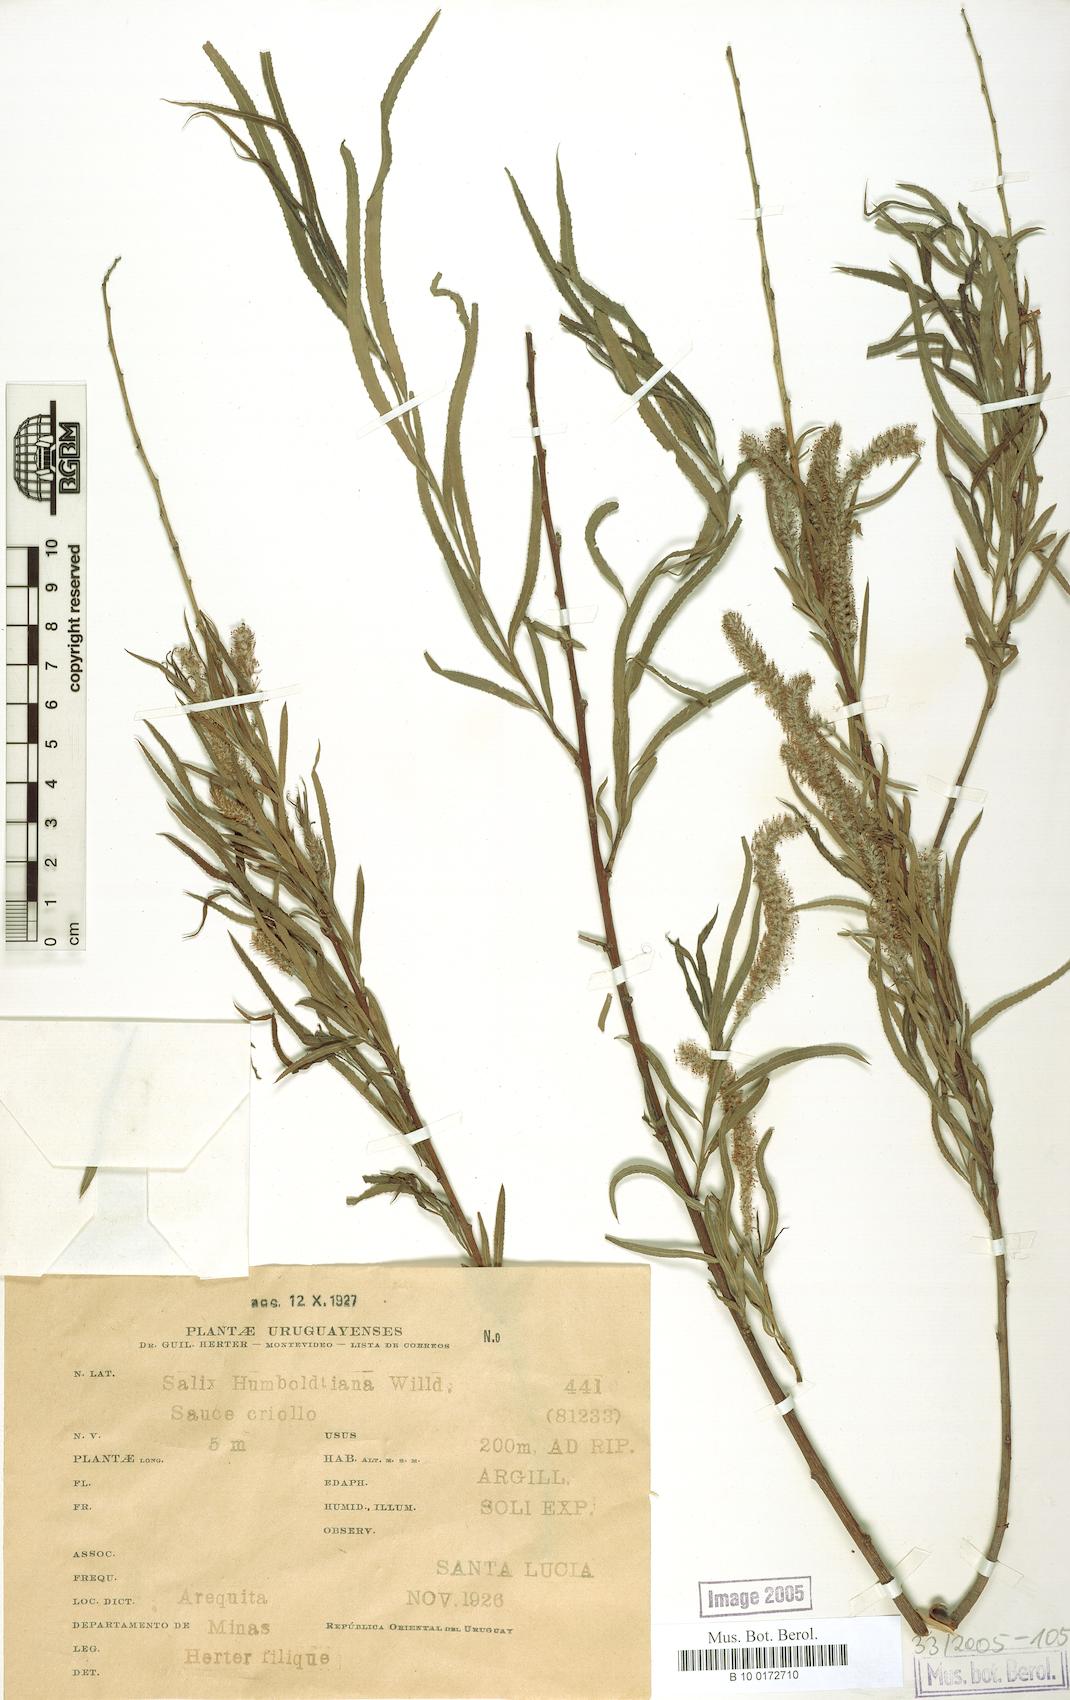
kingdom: Plantae
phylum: Tracheophyta
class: Magnoliopsida
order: Malpighiales
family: Salicaceae
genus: Salix
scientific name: Salix humboldtiana
